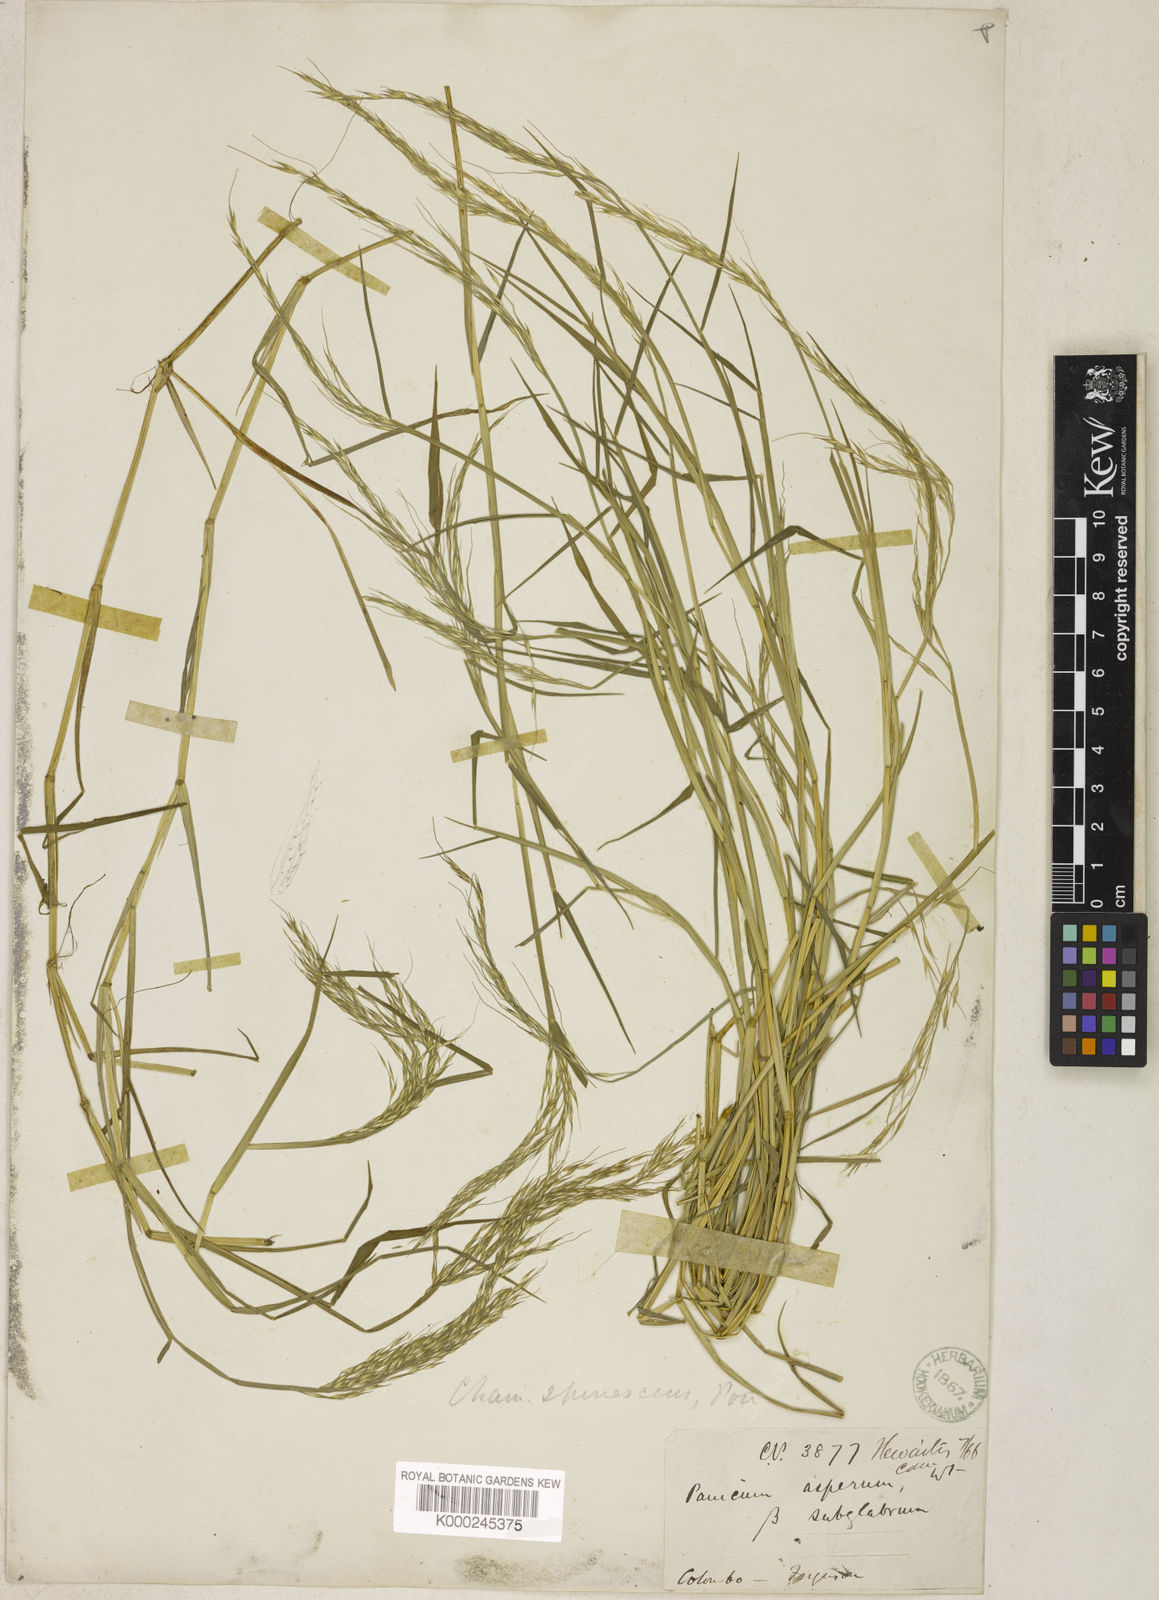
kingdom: Plantae
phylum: Tracheophyta
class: Liliopsida
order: Poales
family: Poaceae
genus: Pseudoraphis
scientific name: Pseudoraphis spinescens
